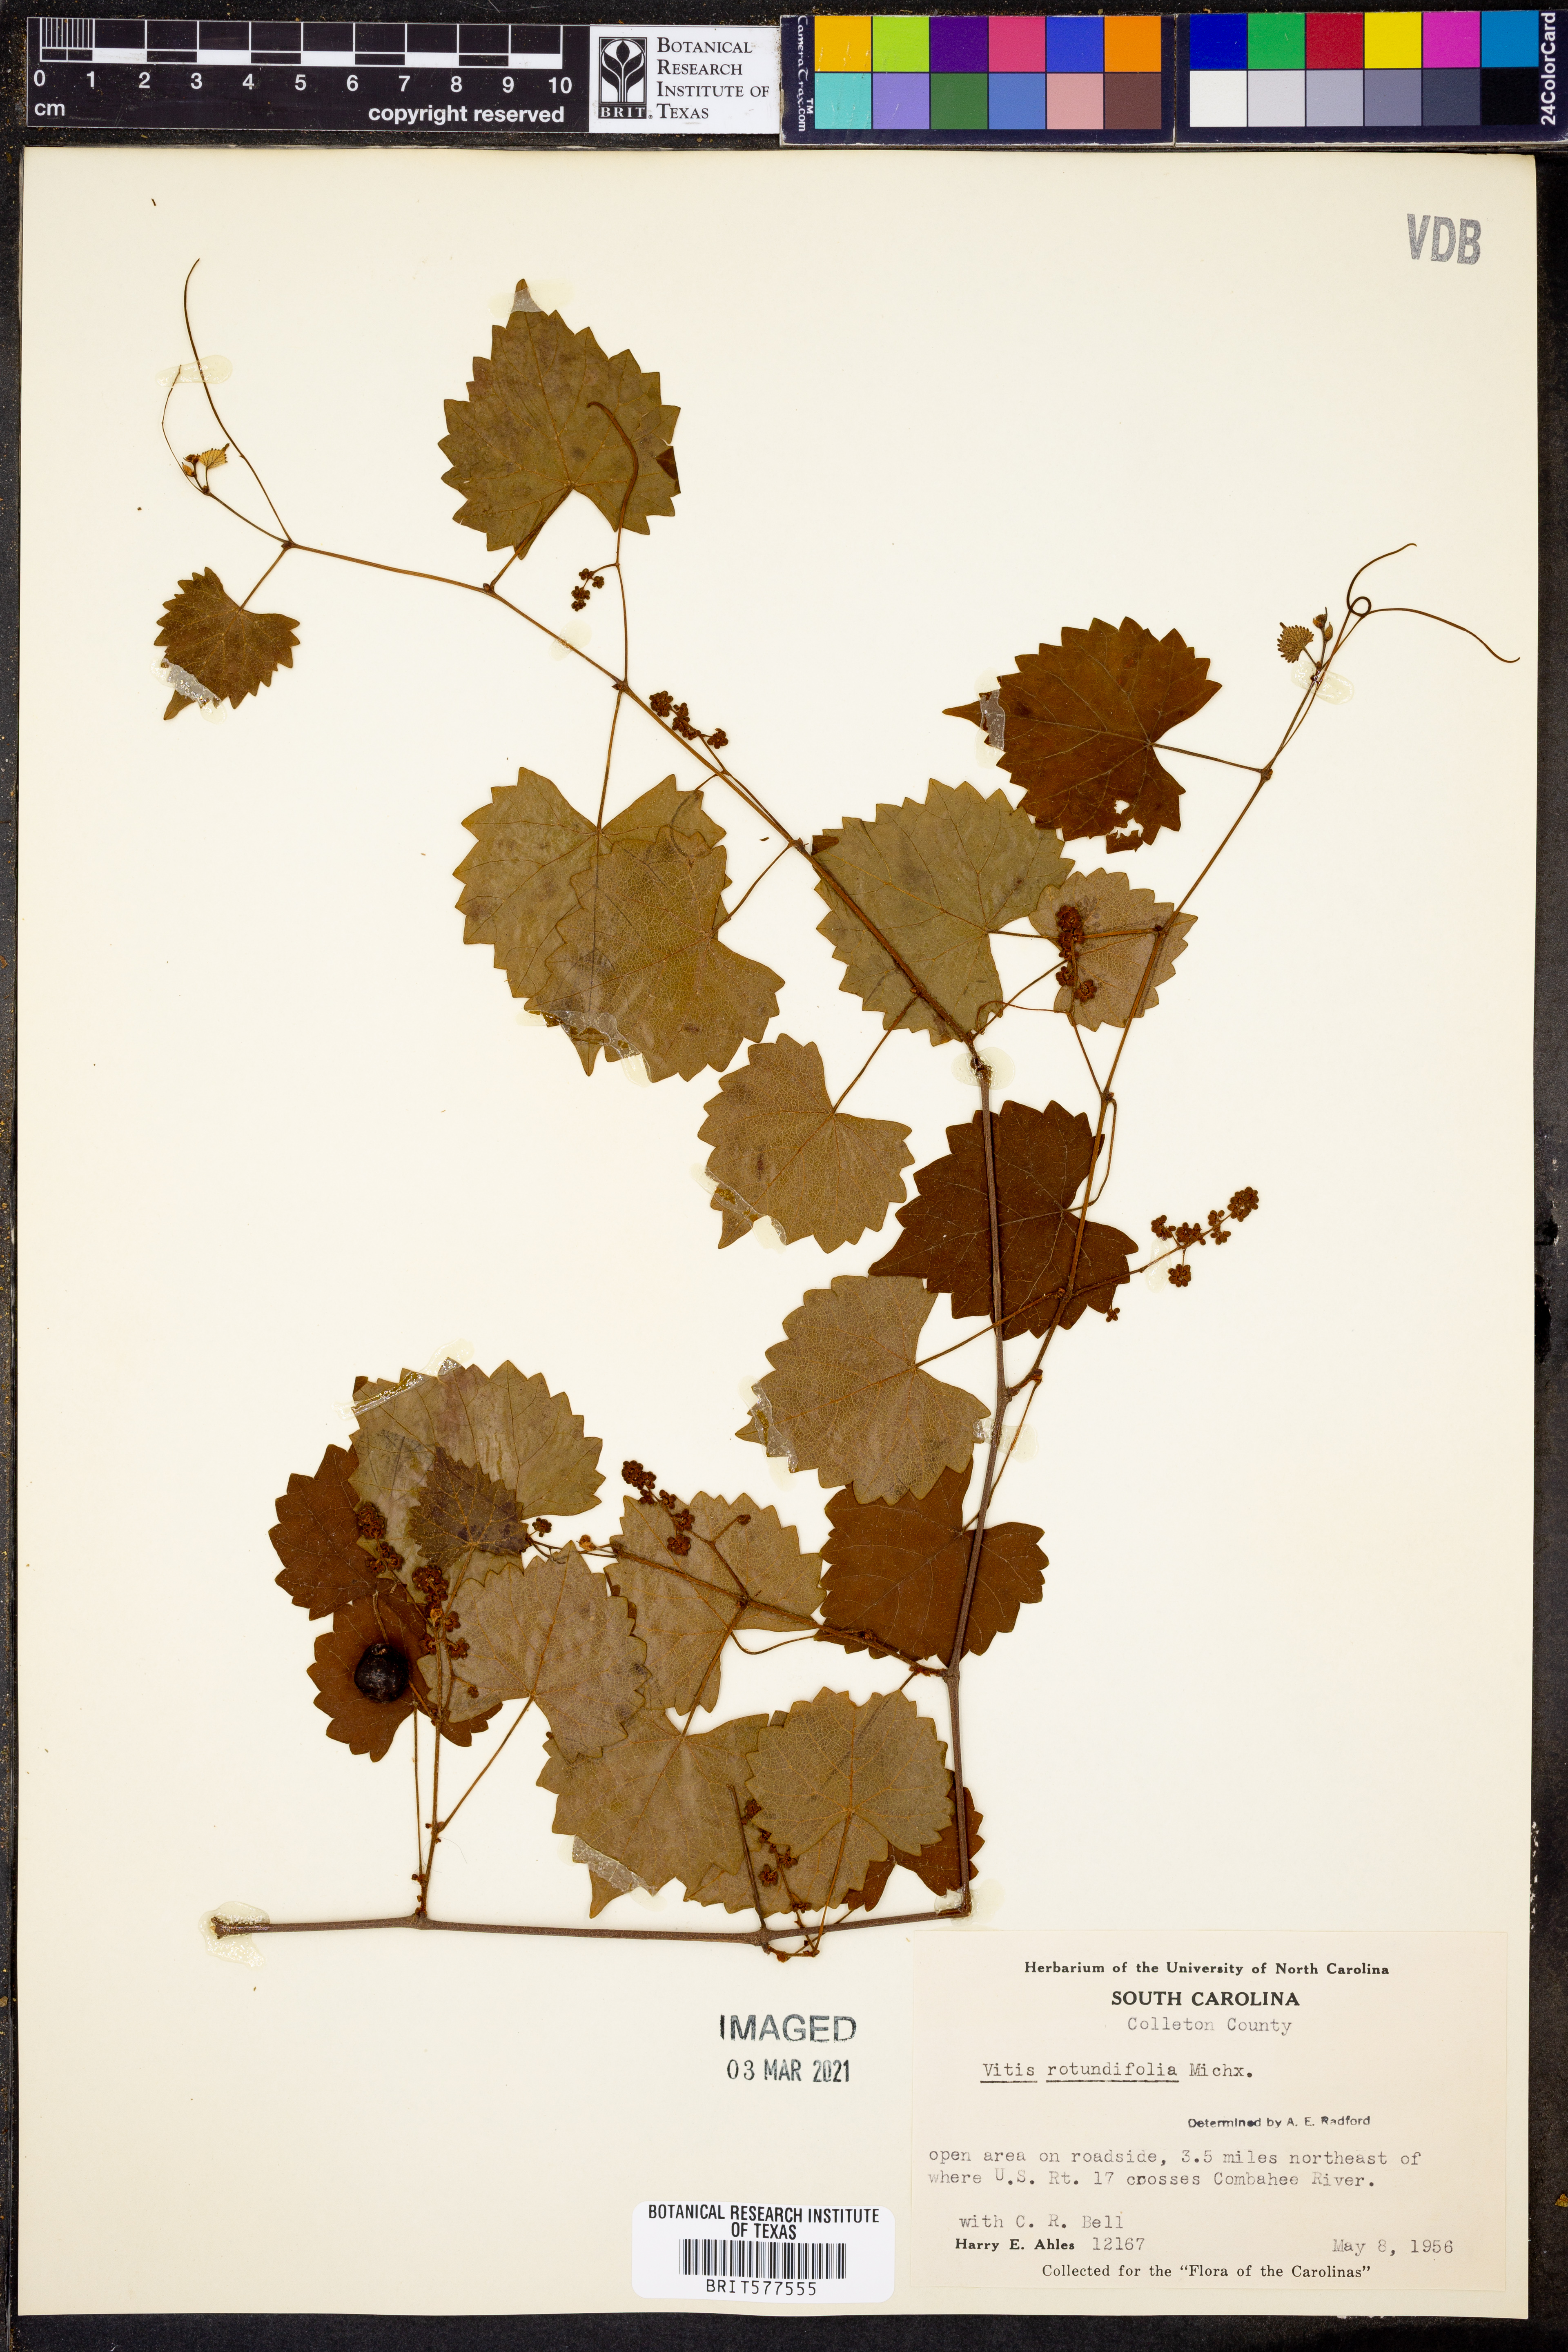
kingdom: Plantae
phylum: Tracheophyta
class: Magnoliopsida
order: Vitales
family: Vitaceae
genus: Vitis
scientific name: Vitis rotundifolia
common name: Muscadine grape
